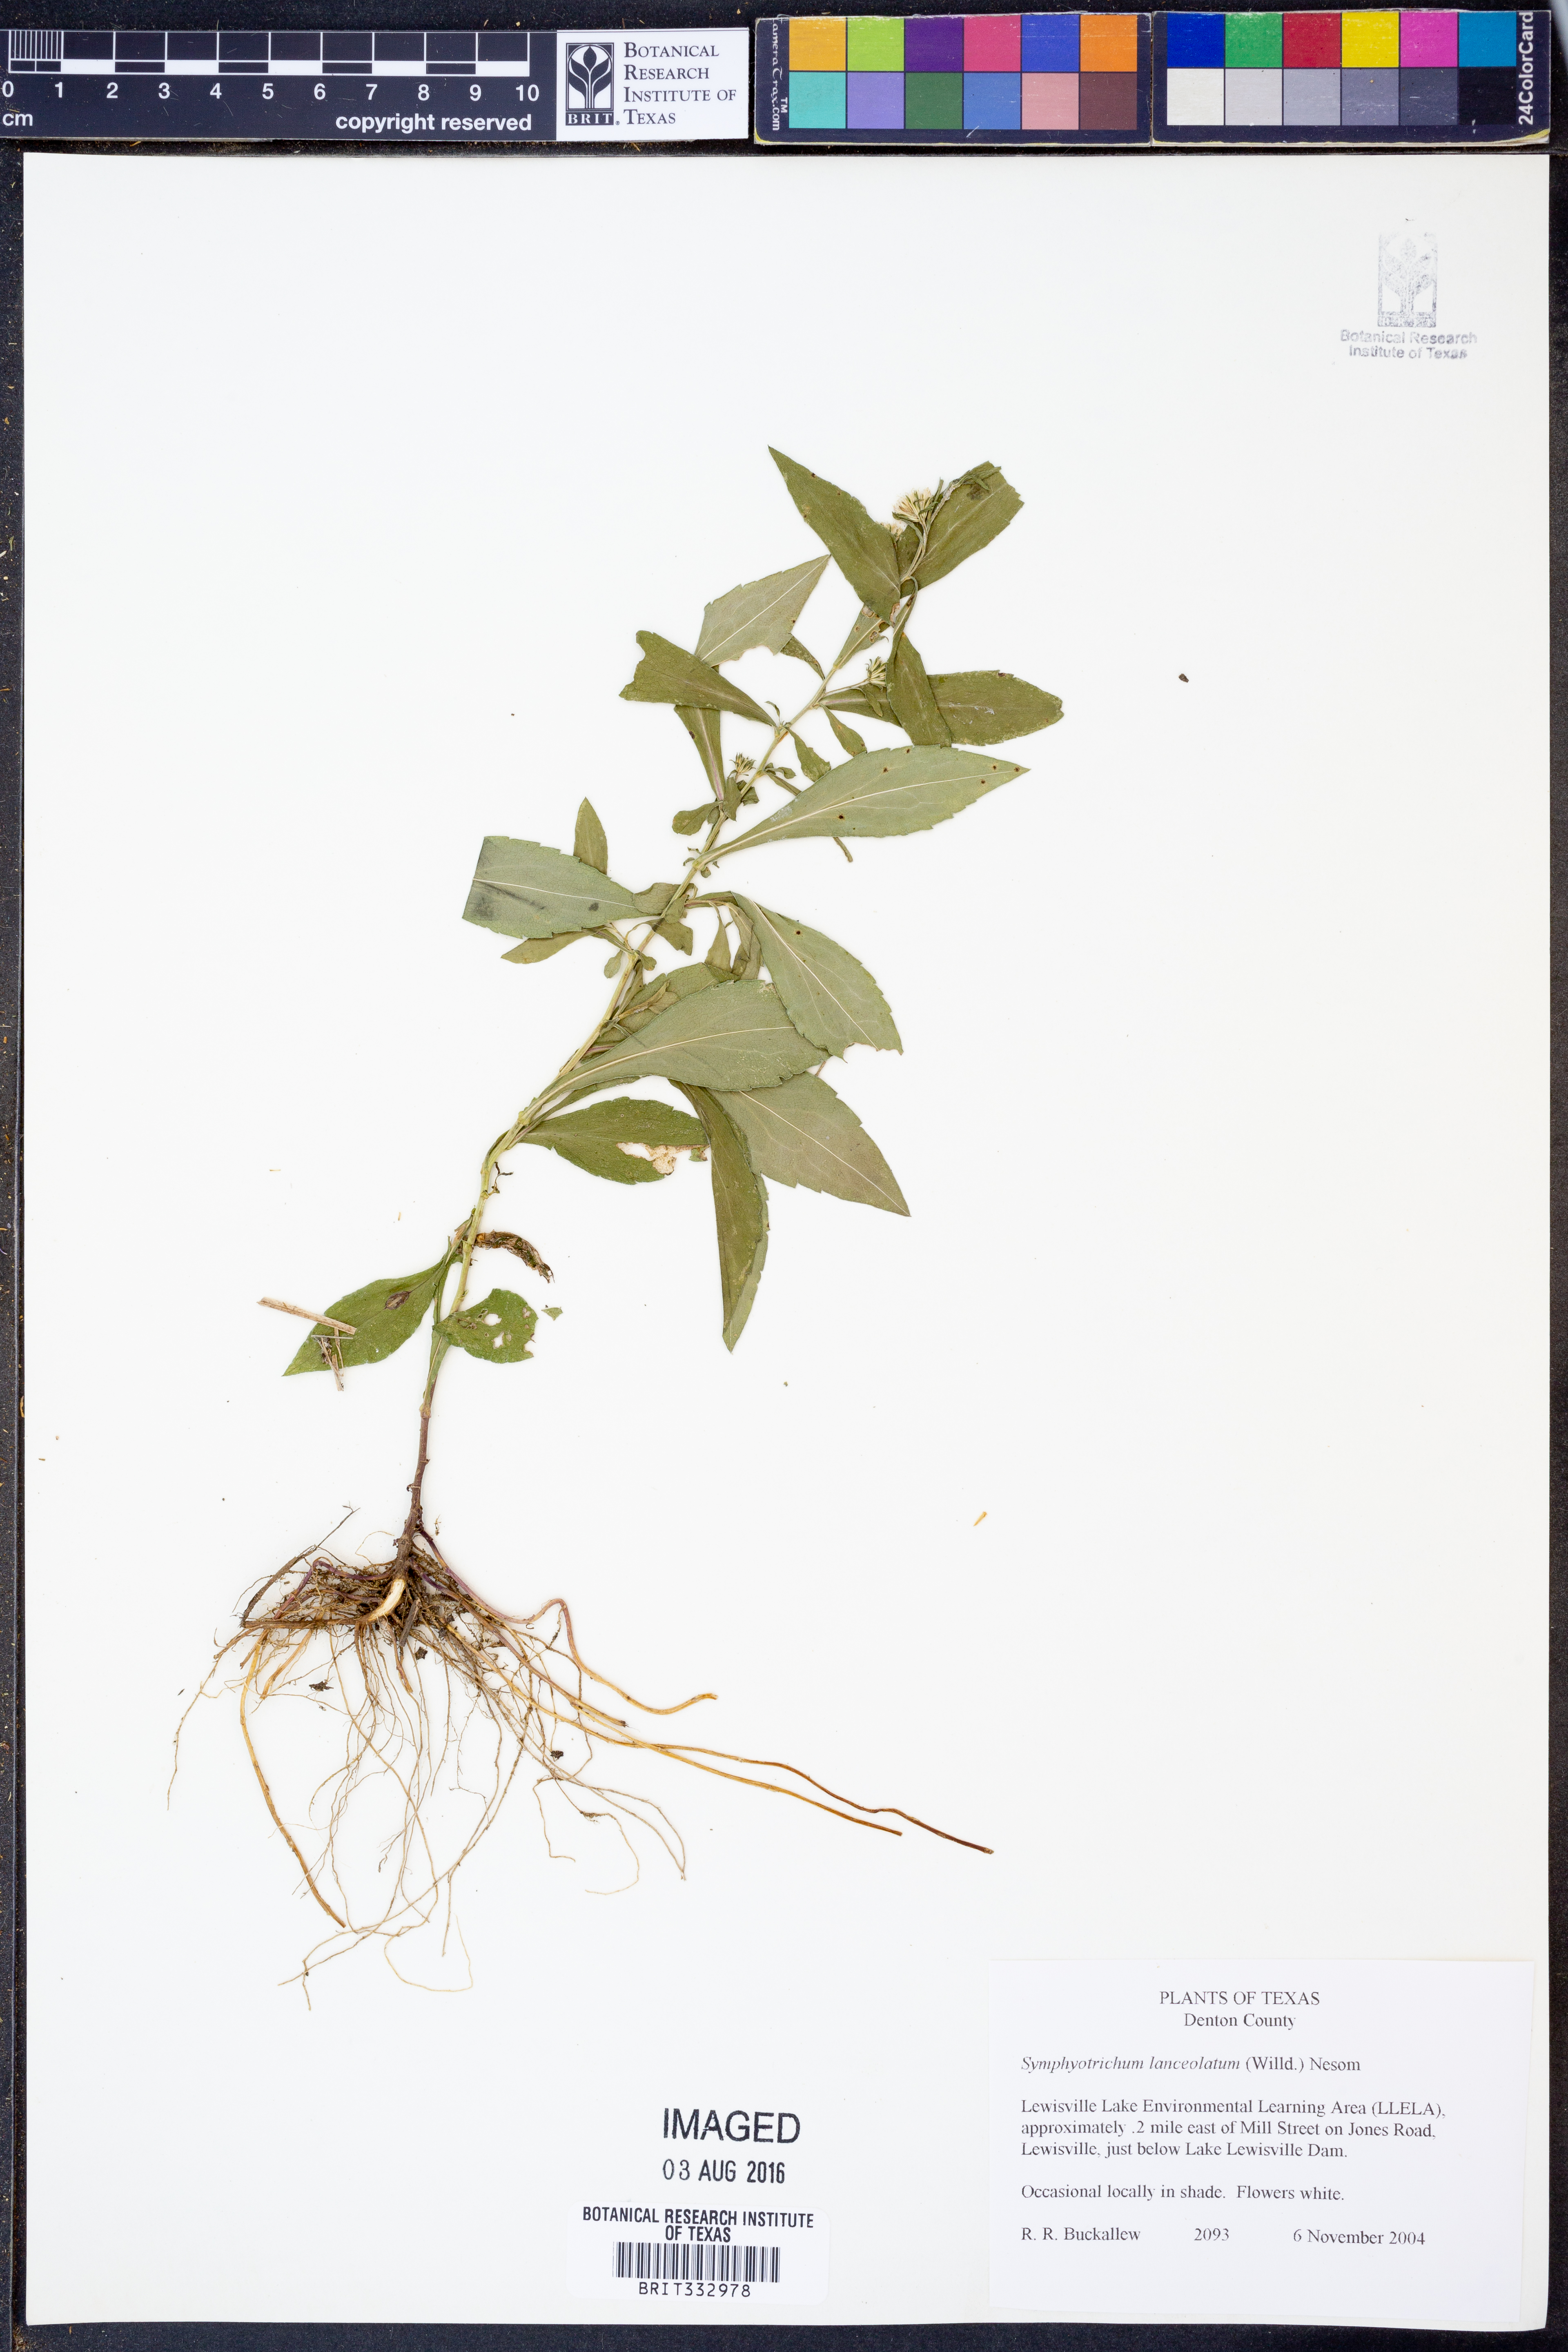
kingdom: Plantae
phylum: Tracheophyta
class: Magnoliopsida
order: Asterales
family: Asteraceae
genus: Symphyotrichum
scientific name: Symphyotrichum lanceolatum
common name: Panicled aster
